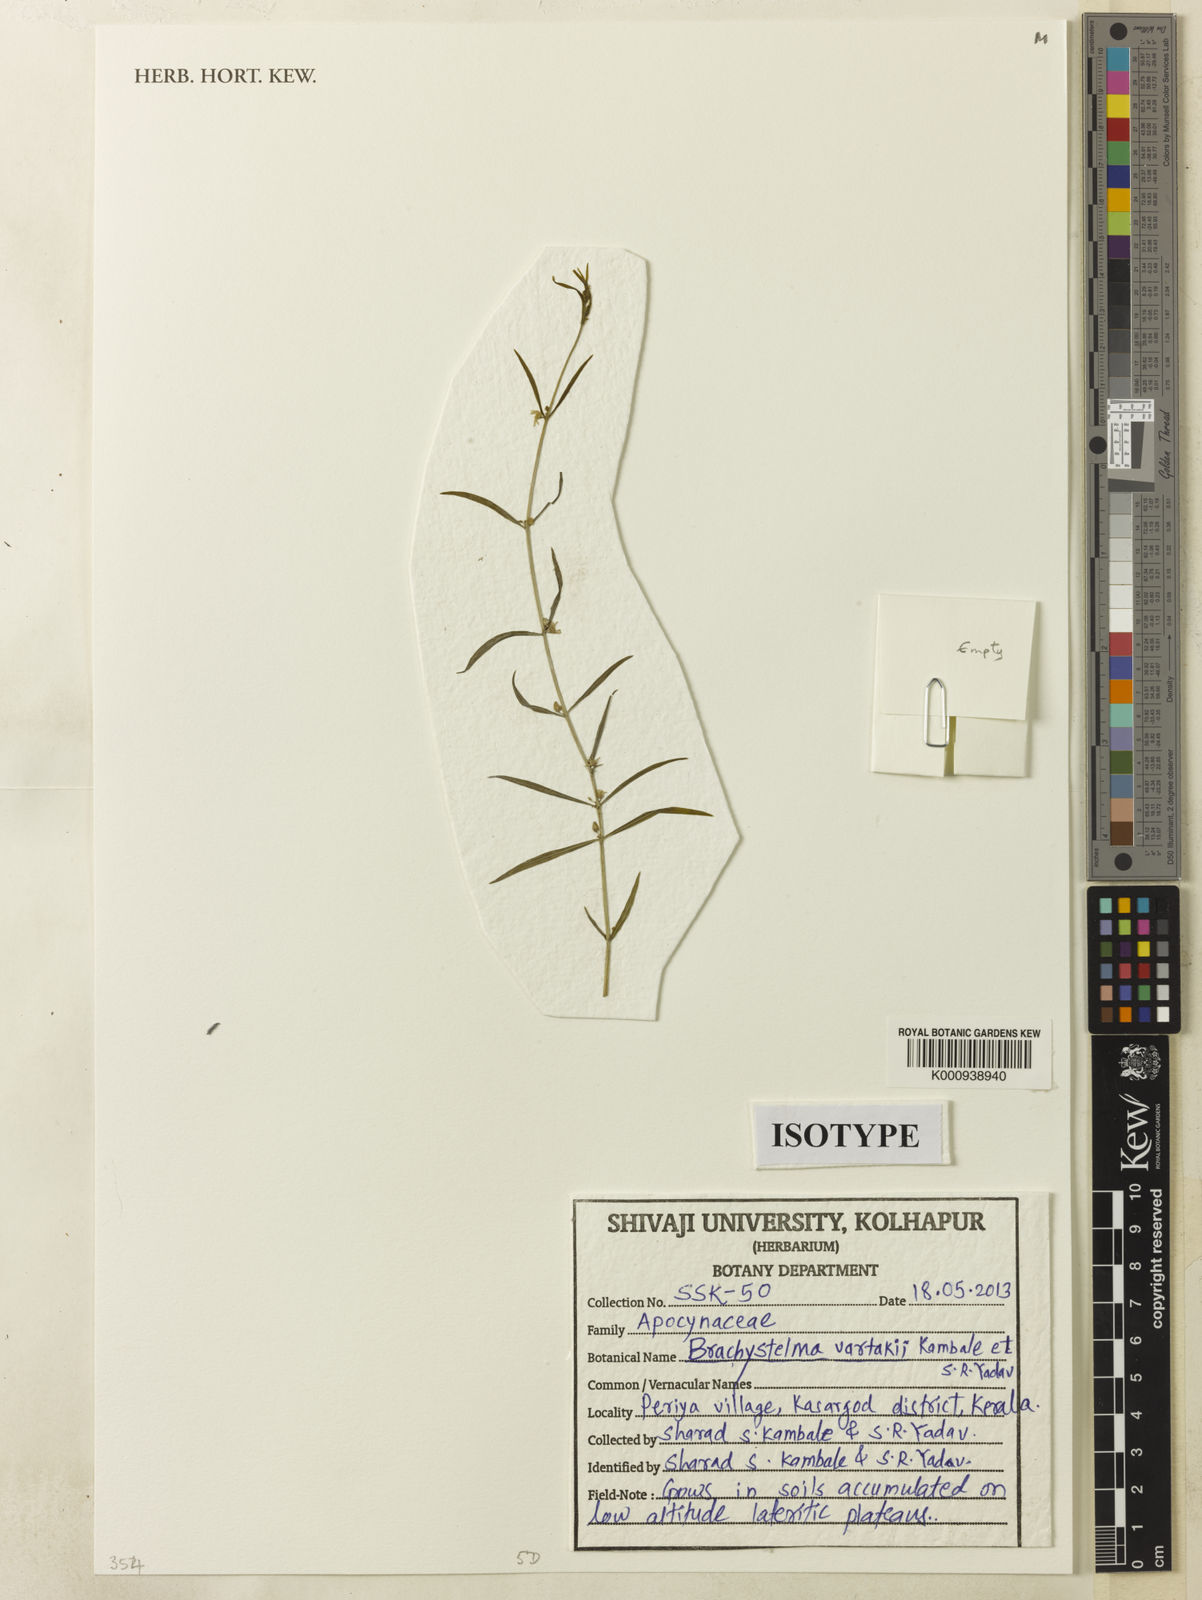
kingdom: Plantae
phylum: Tracheophyta
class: Magnoliopsida
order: Gentianales
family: Apocynaceae
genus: Ceropegia
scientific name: Ceropegia vartakii
